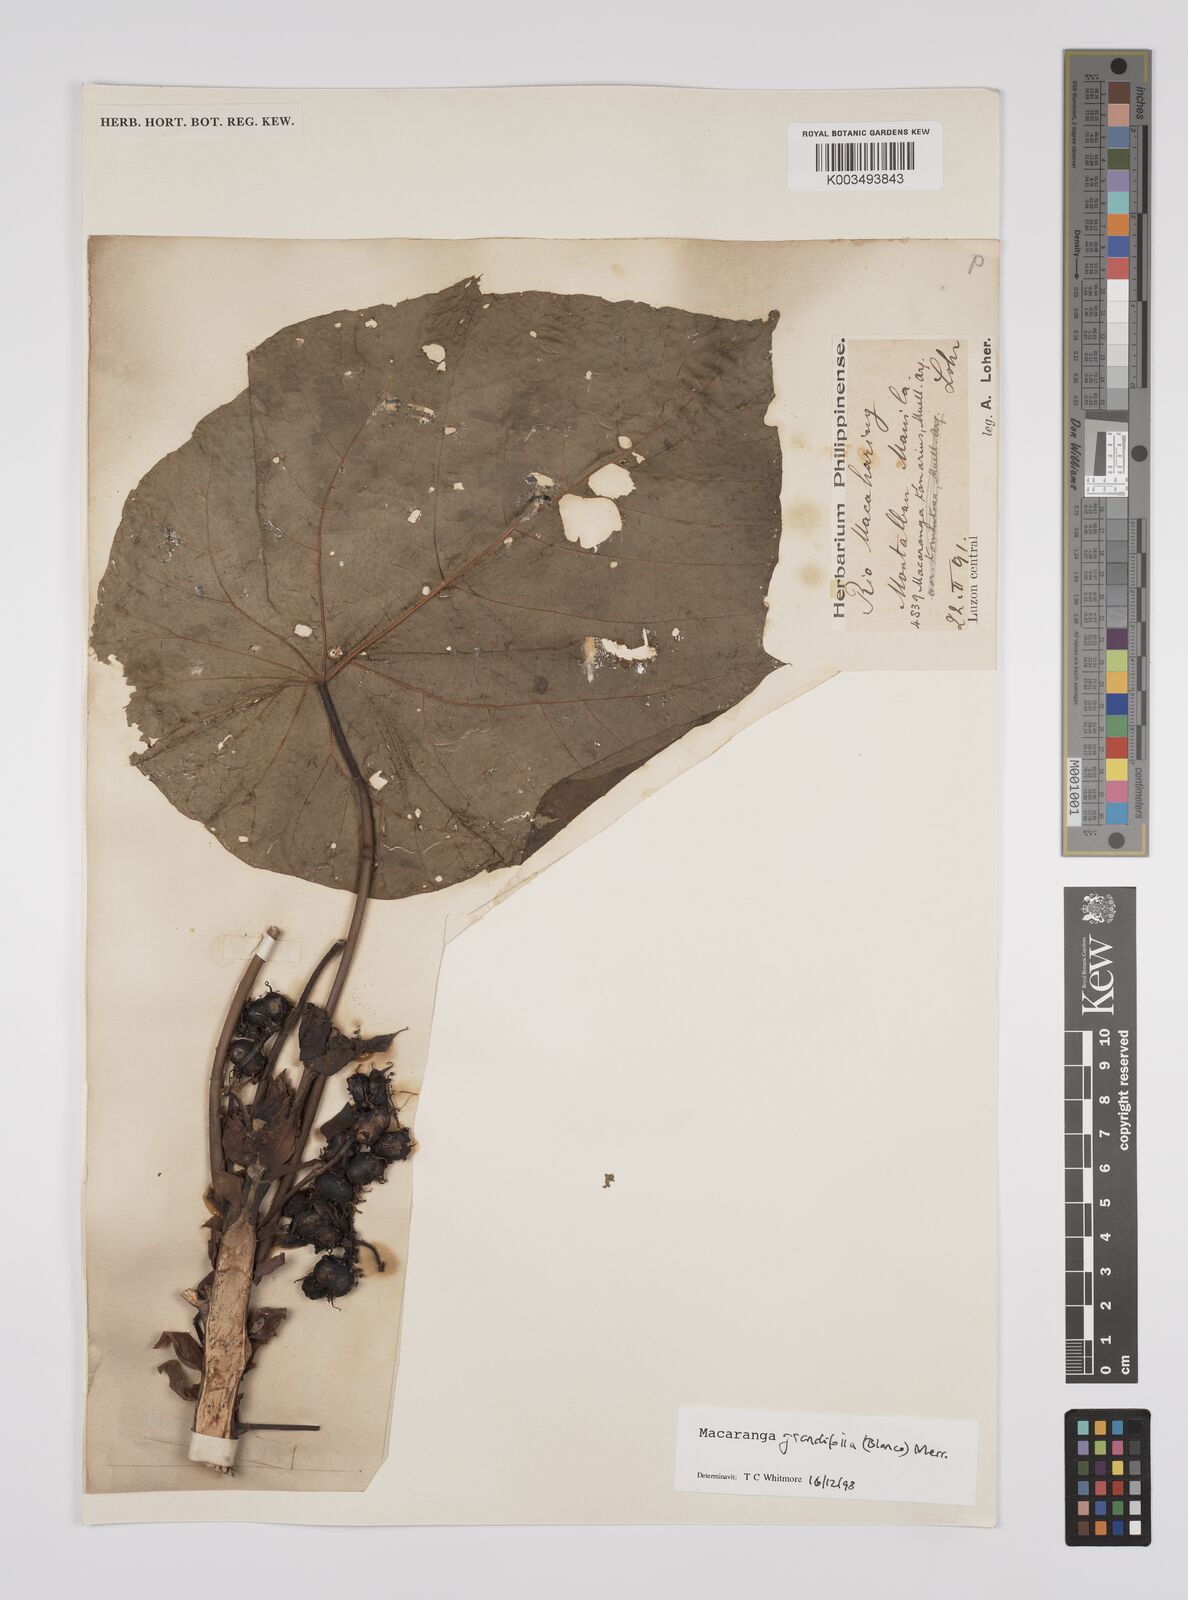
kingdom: Plantae
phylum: Tracheophyta
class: Magnoliopsida
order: Malpighiales
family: Euphorbiaceae
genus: Macaranga
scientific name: Macaranga grandifolia
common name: Coraltree
